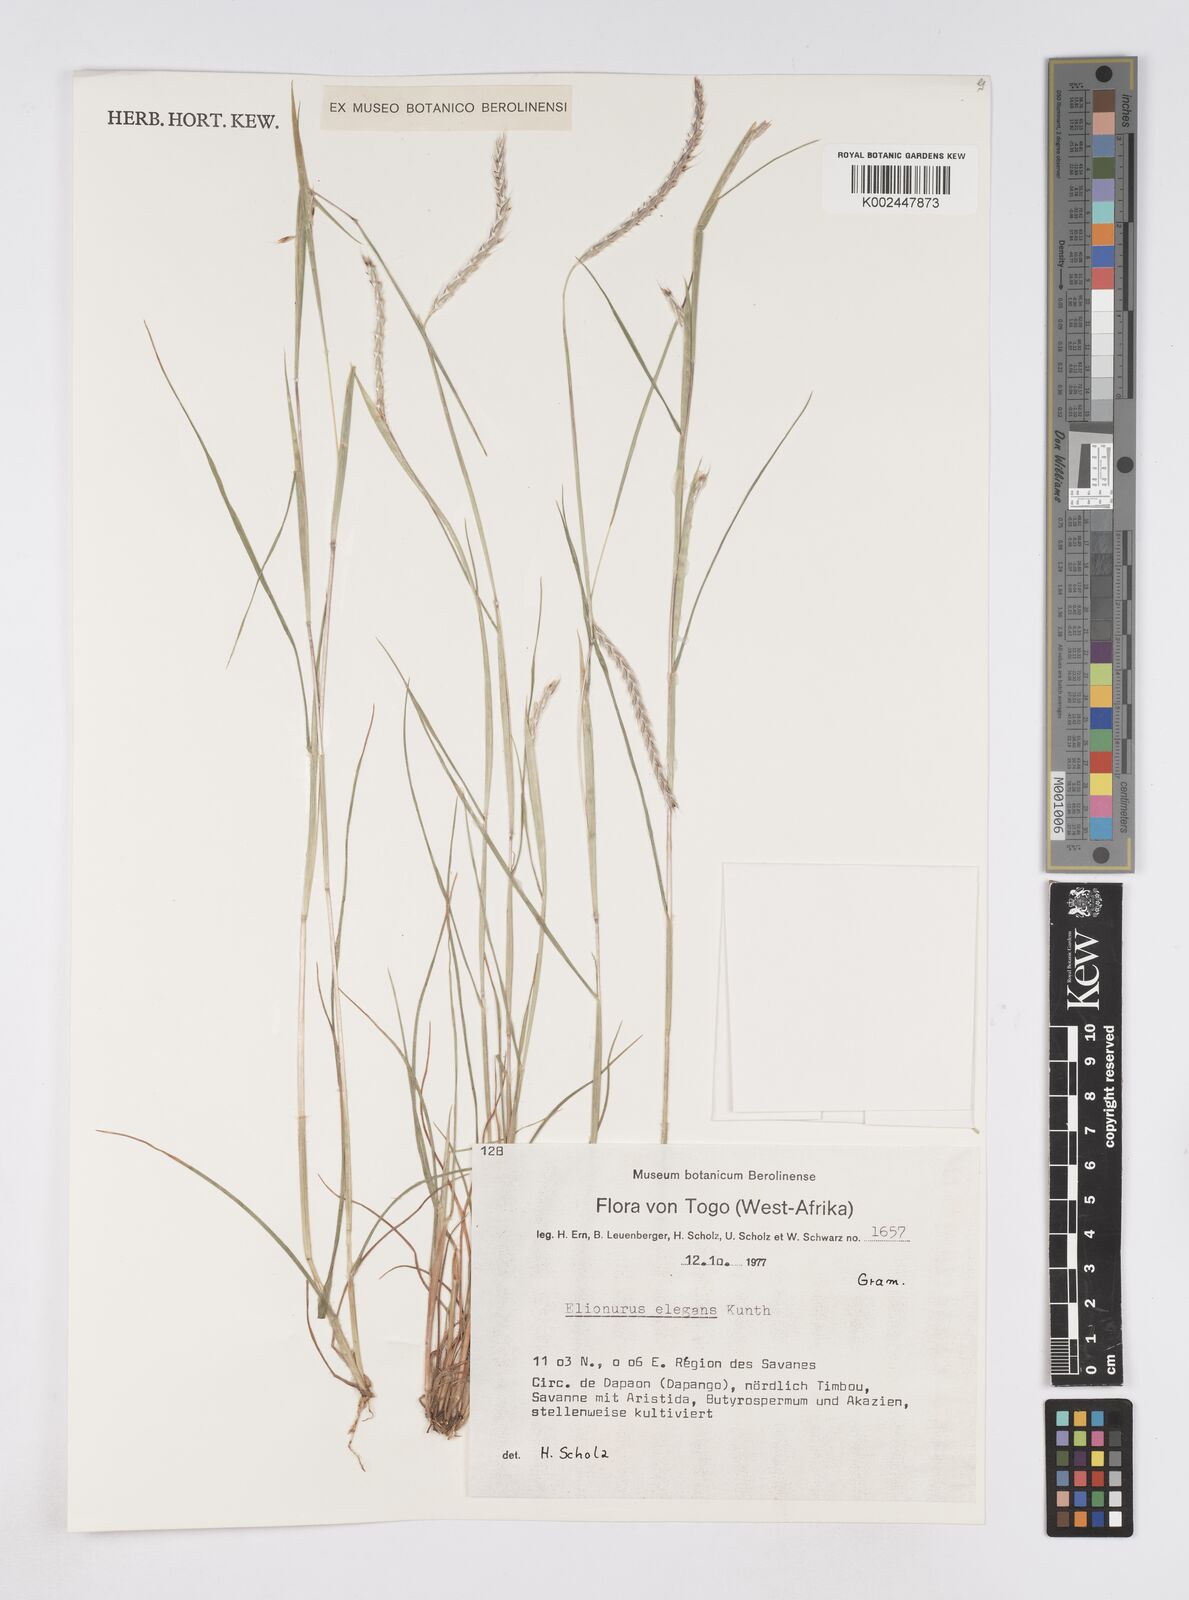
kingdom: Plantae
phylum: Tracheophyta
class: Liliopsida
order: Poales
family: Poaceae
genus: Elionurus
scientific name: Elionurus elegans
